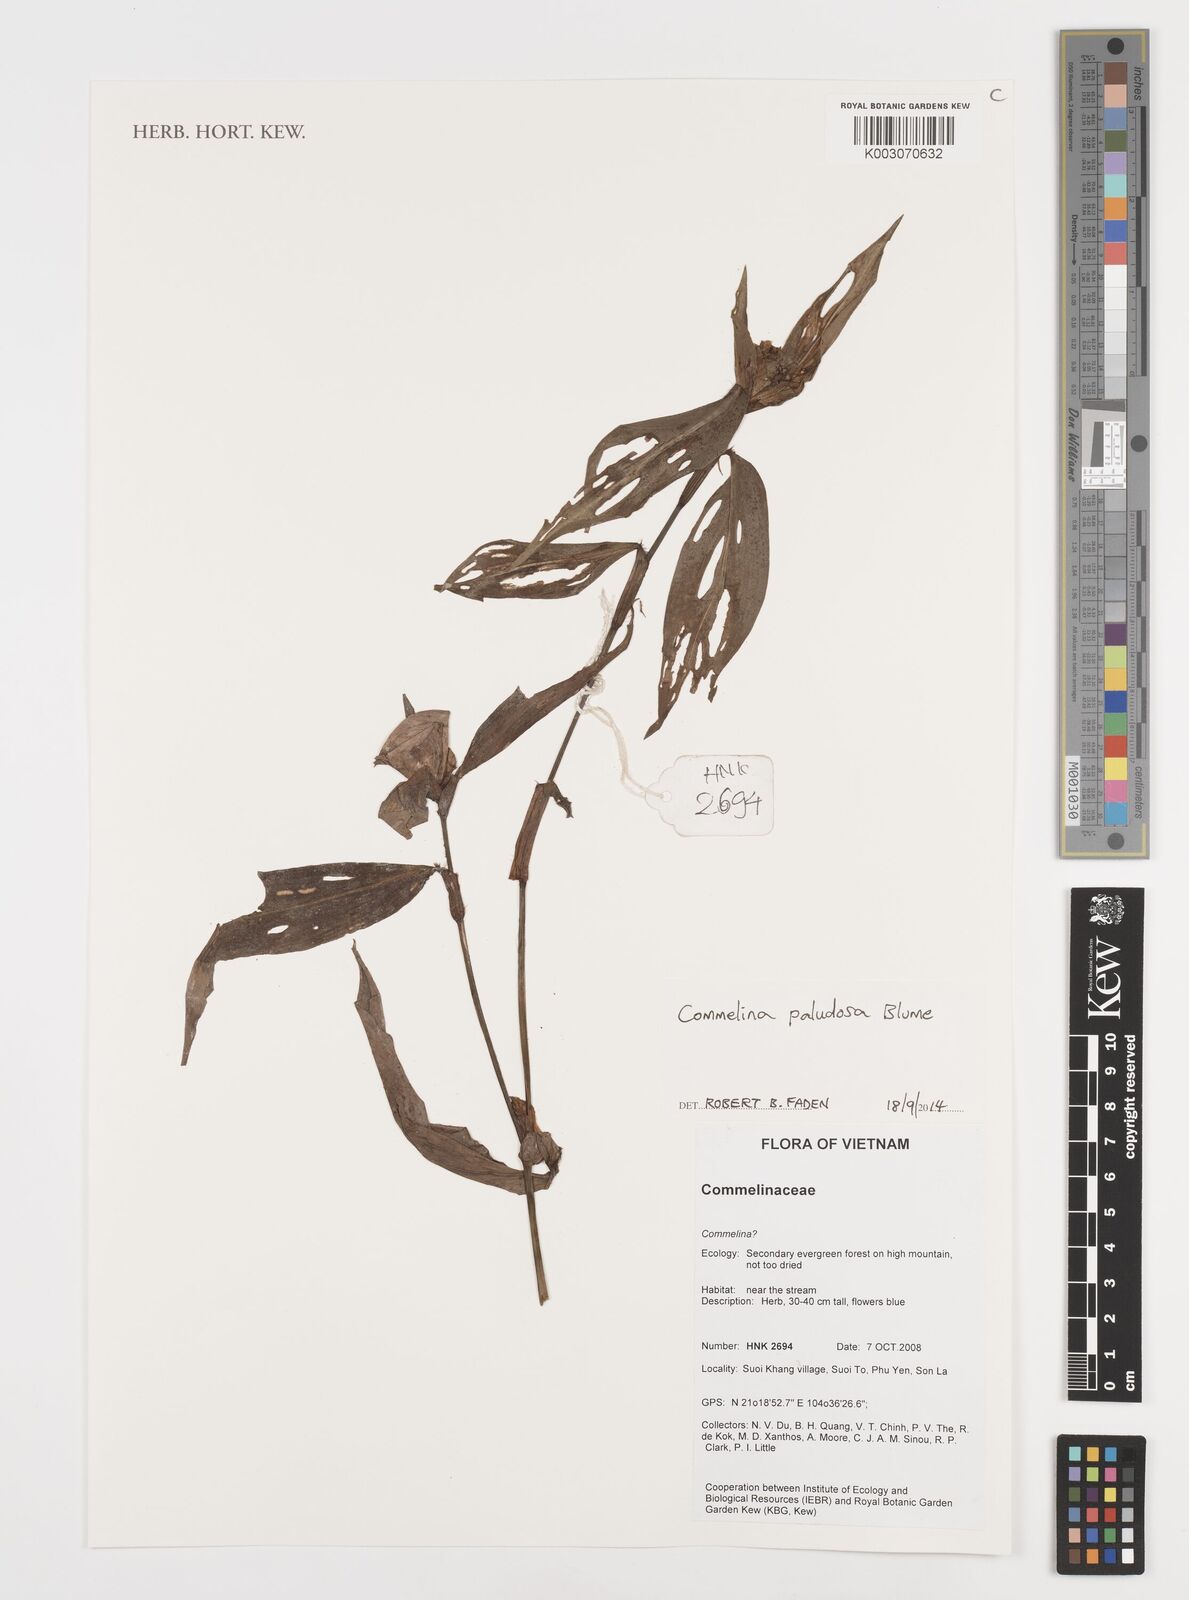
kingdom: Plantae
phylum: Tracheophyta
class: Liliopsida
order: Commelinales
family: Commelinaceae
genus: Commelina
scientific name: Commelina paludosa
